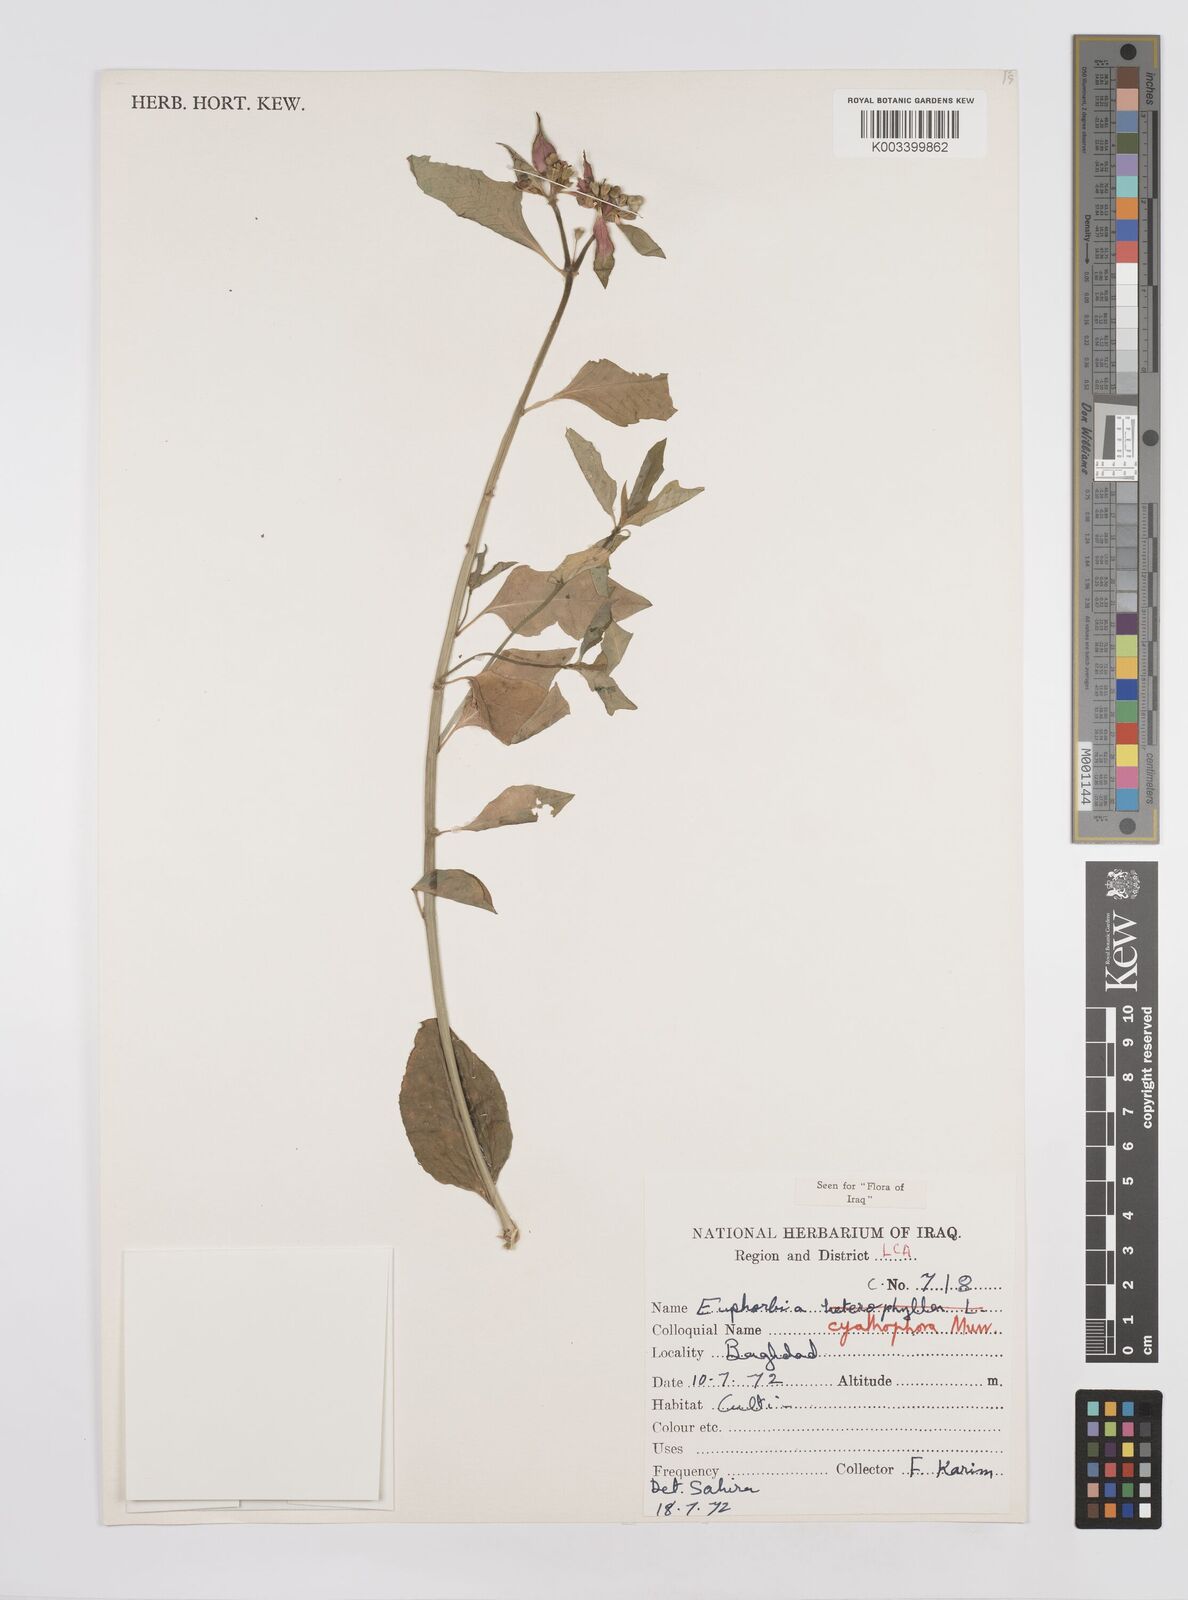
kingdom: Plantae
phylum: Tracheophyta
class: Magnoliopsida
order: Malpighiales
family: Euphorbiaceae
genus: Euphorbia
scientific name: Euphorbia heterophylla
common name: Mexican fireplant
